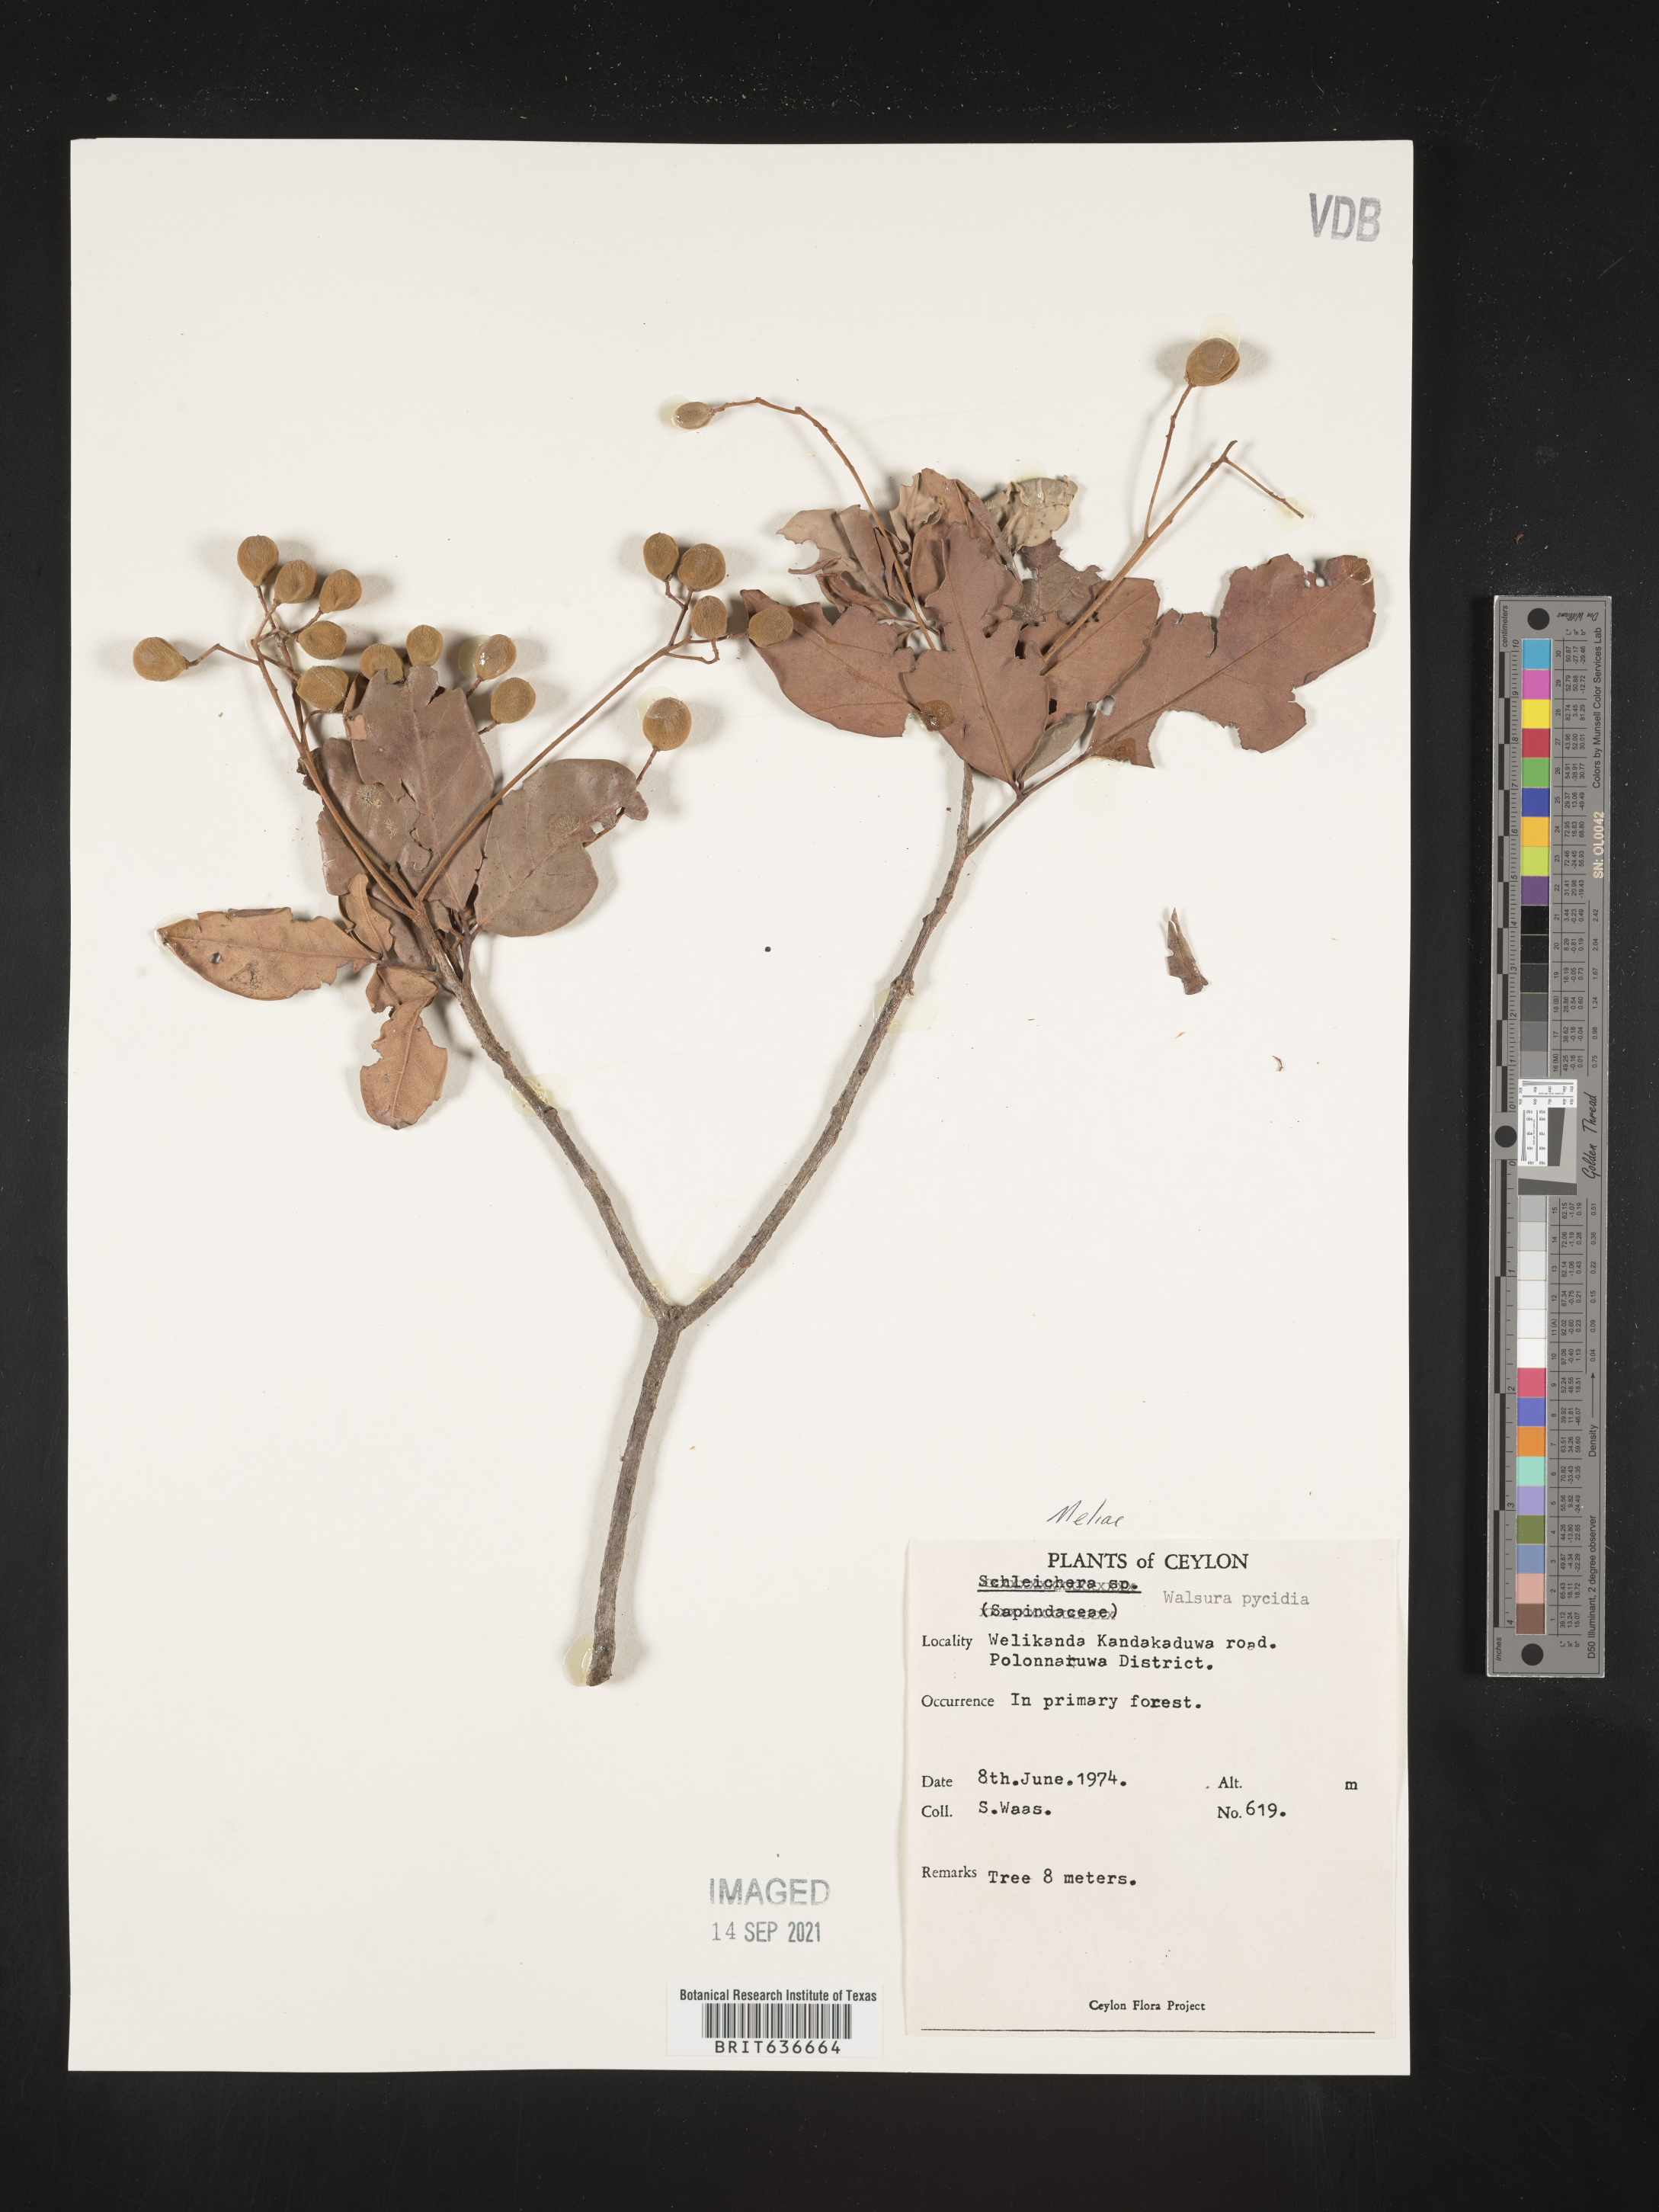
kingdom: Plantae
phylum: Tracheophyta
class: Magnoliopsida
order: Sapindales
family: Meliaceae
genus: Walsura
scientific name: Walsura trifoliolata
